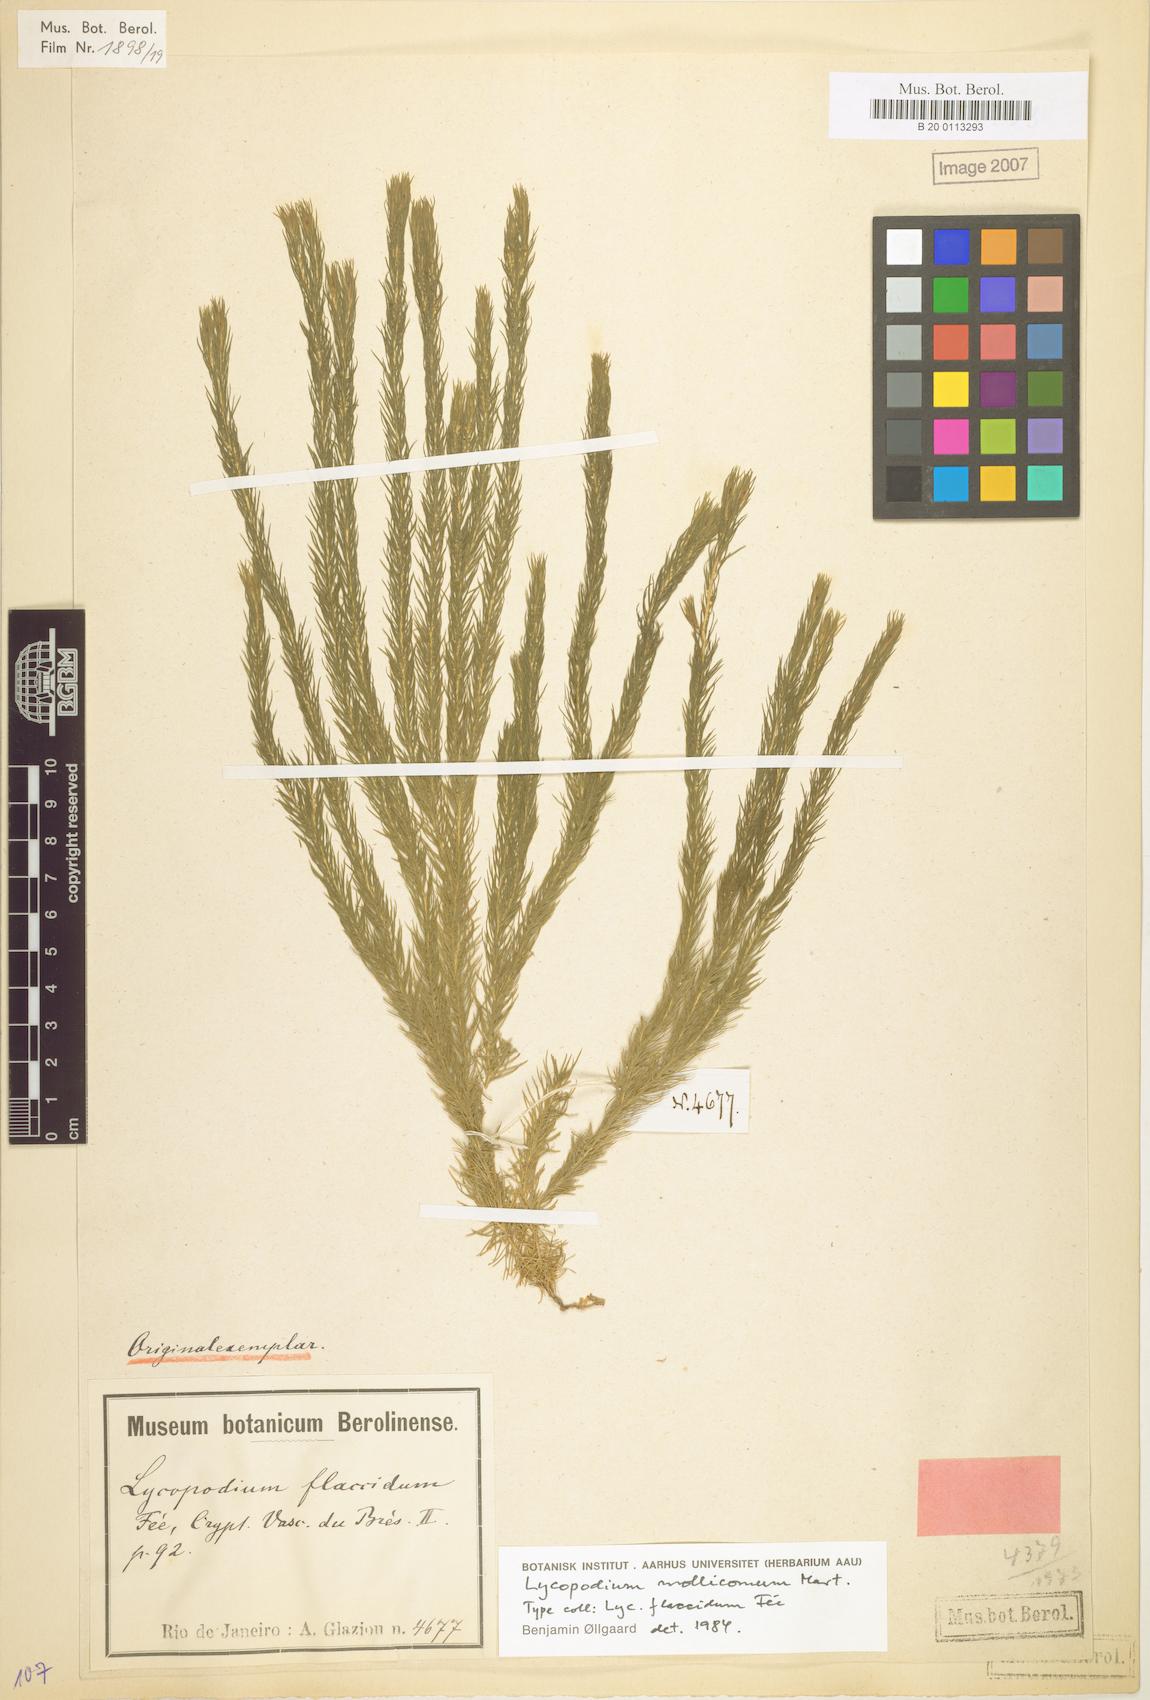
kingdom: Plantae
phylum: Tracheophyta
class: Lycopodiopsida
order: Lycopodiales
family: Lycopodiaceae
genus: Phlegmariurus
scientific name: Phlegmariurus mollicomus
